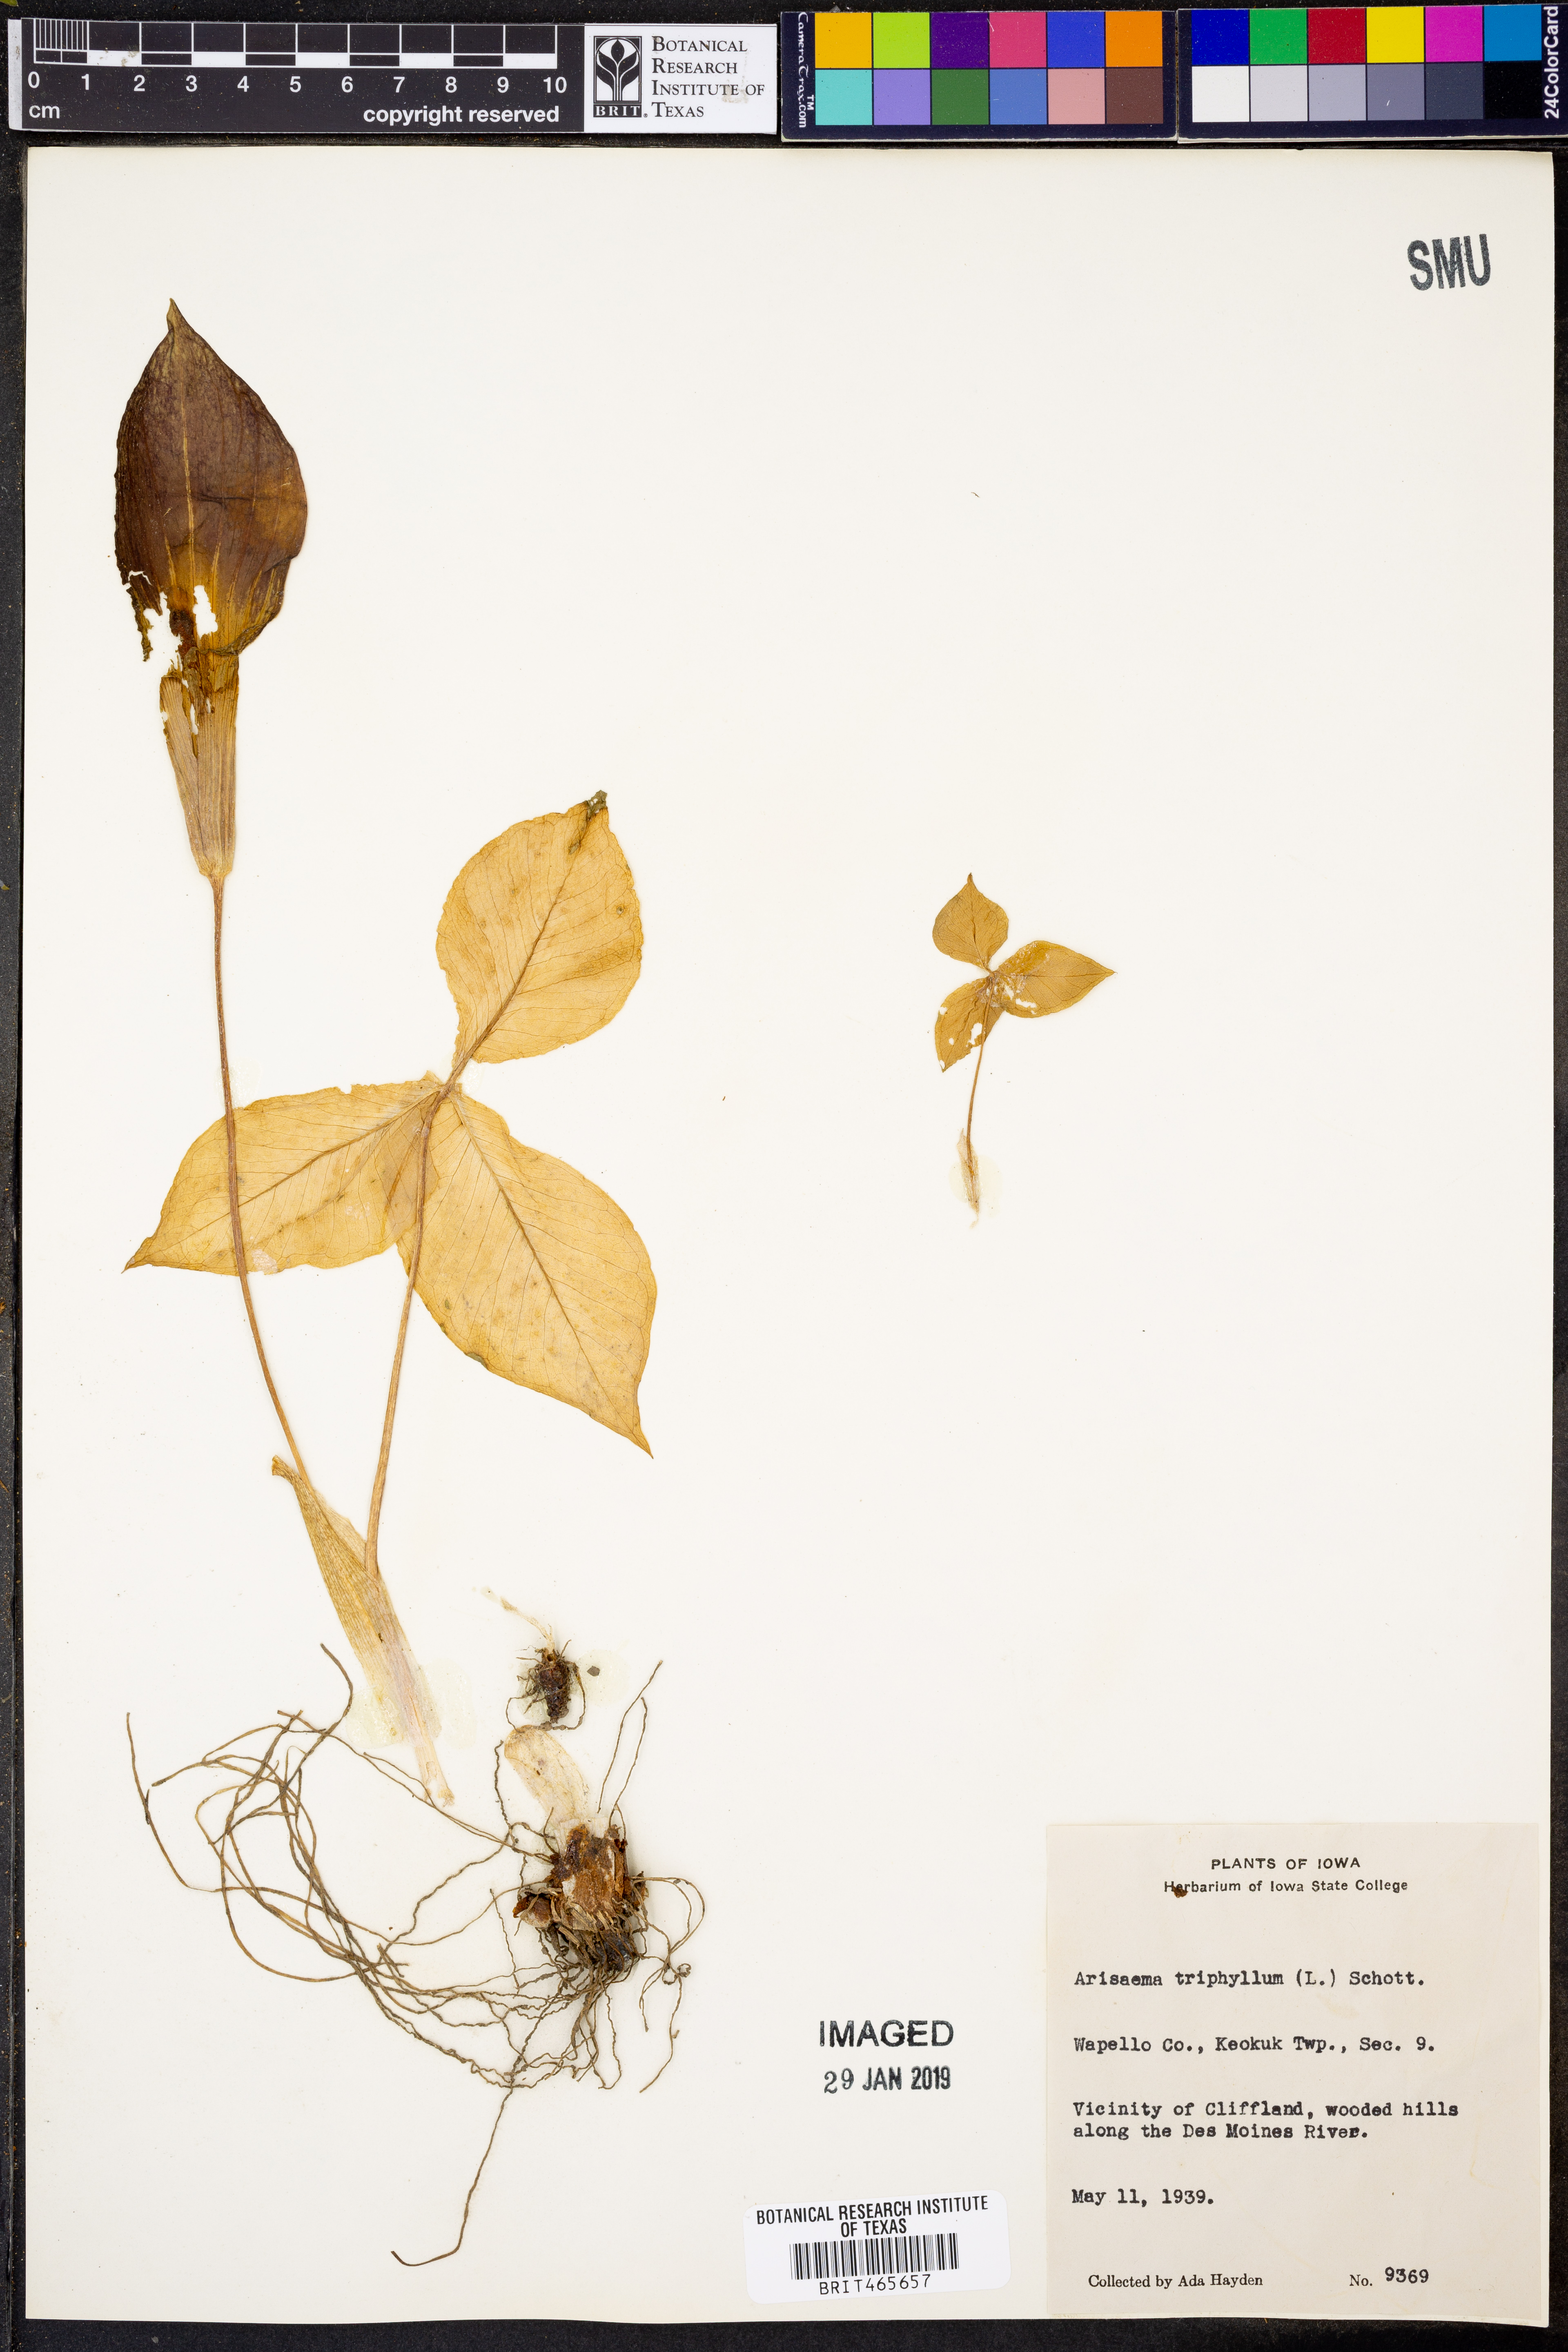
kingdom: Plantae
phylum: Tracheophyta
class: Liliopsida
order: Alismatales
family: Araceae
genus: Arisaema
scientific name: Arisaema triphyllum
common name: Jack-in-the-pulpit
